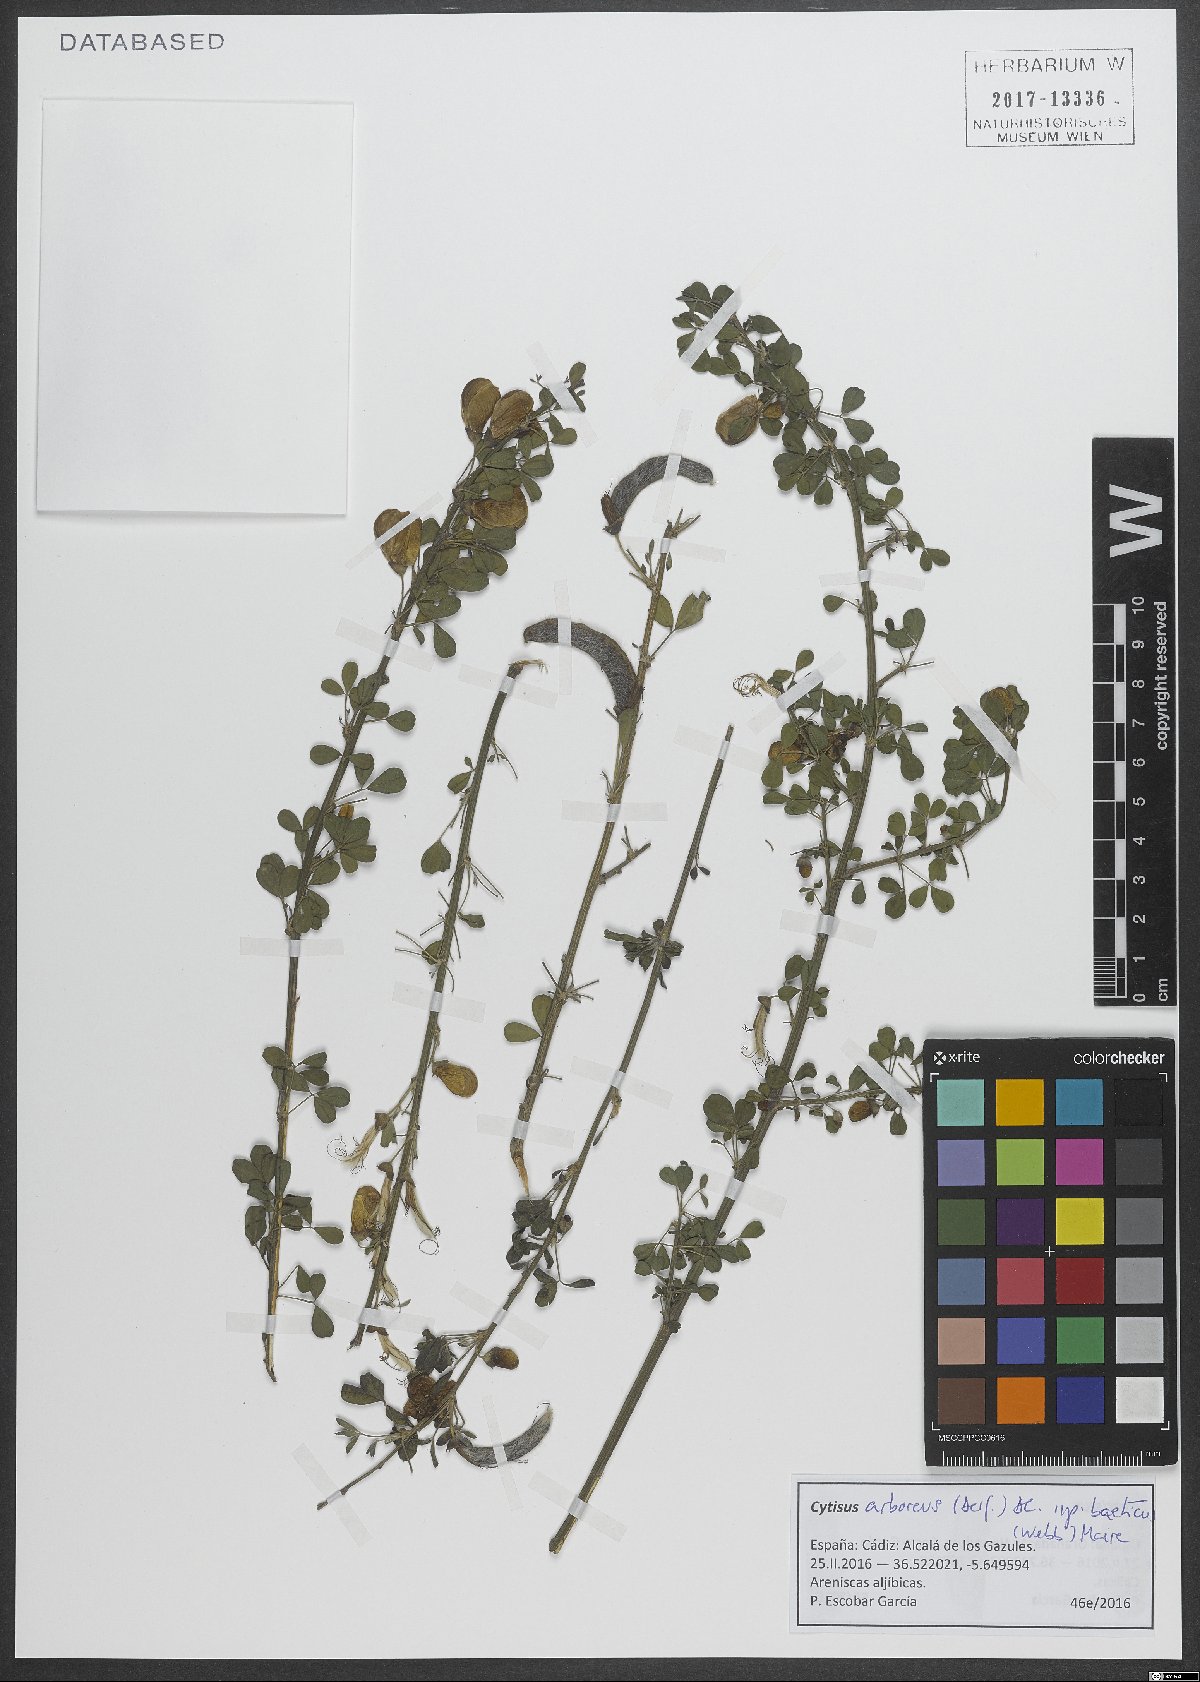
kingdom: Plantae
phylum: Tracheophyta
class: Magnoliopsida
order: Fabales
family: Fabaceae
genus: Cytisus
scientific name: Cytisus arboreus
